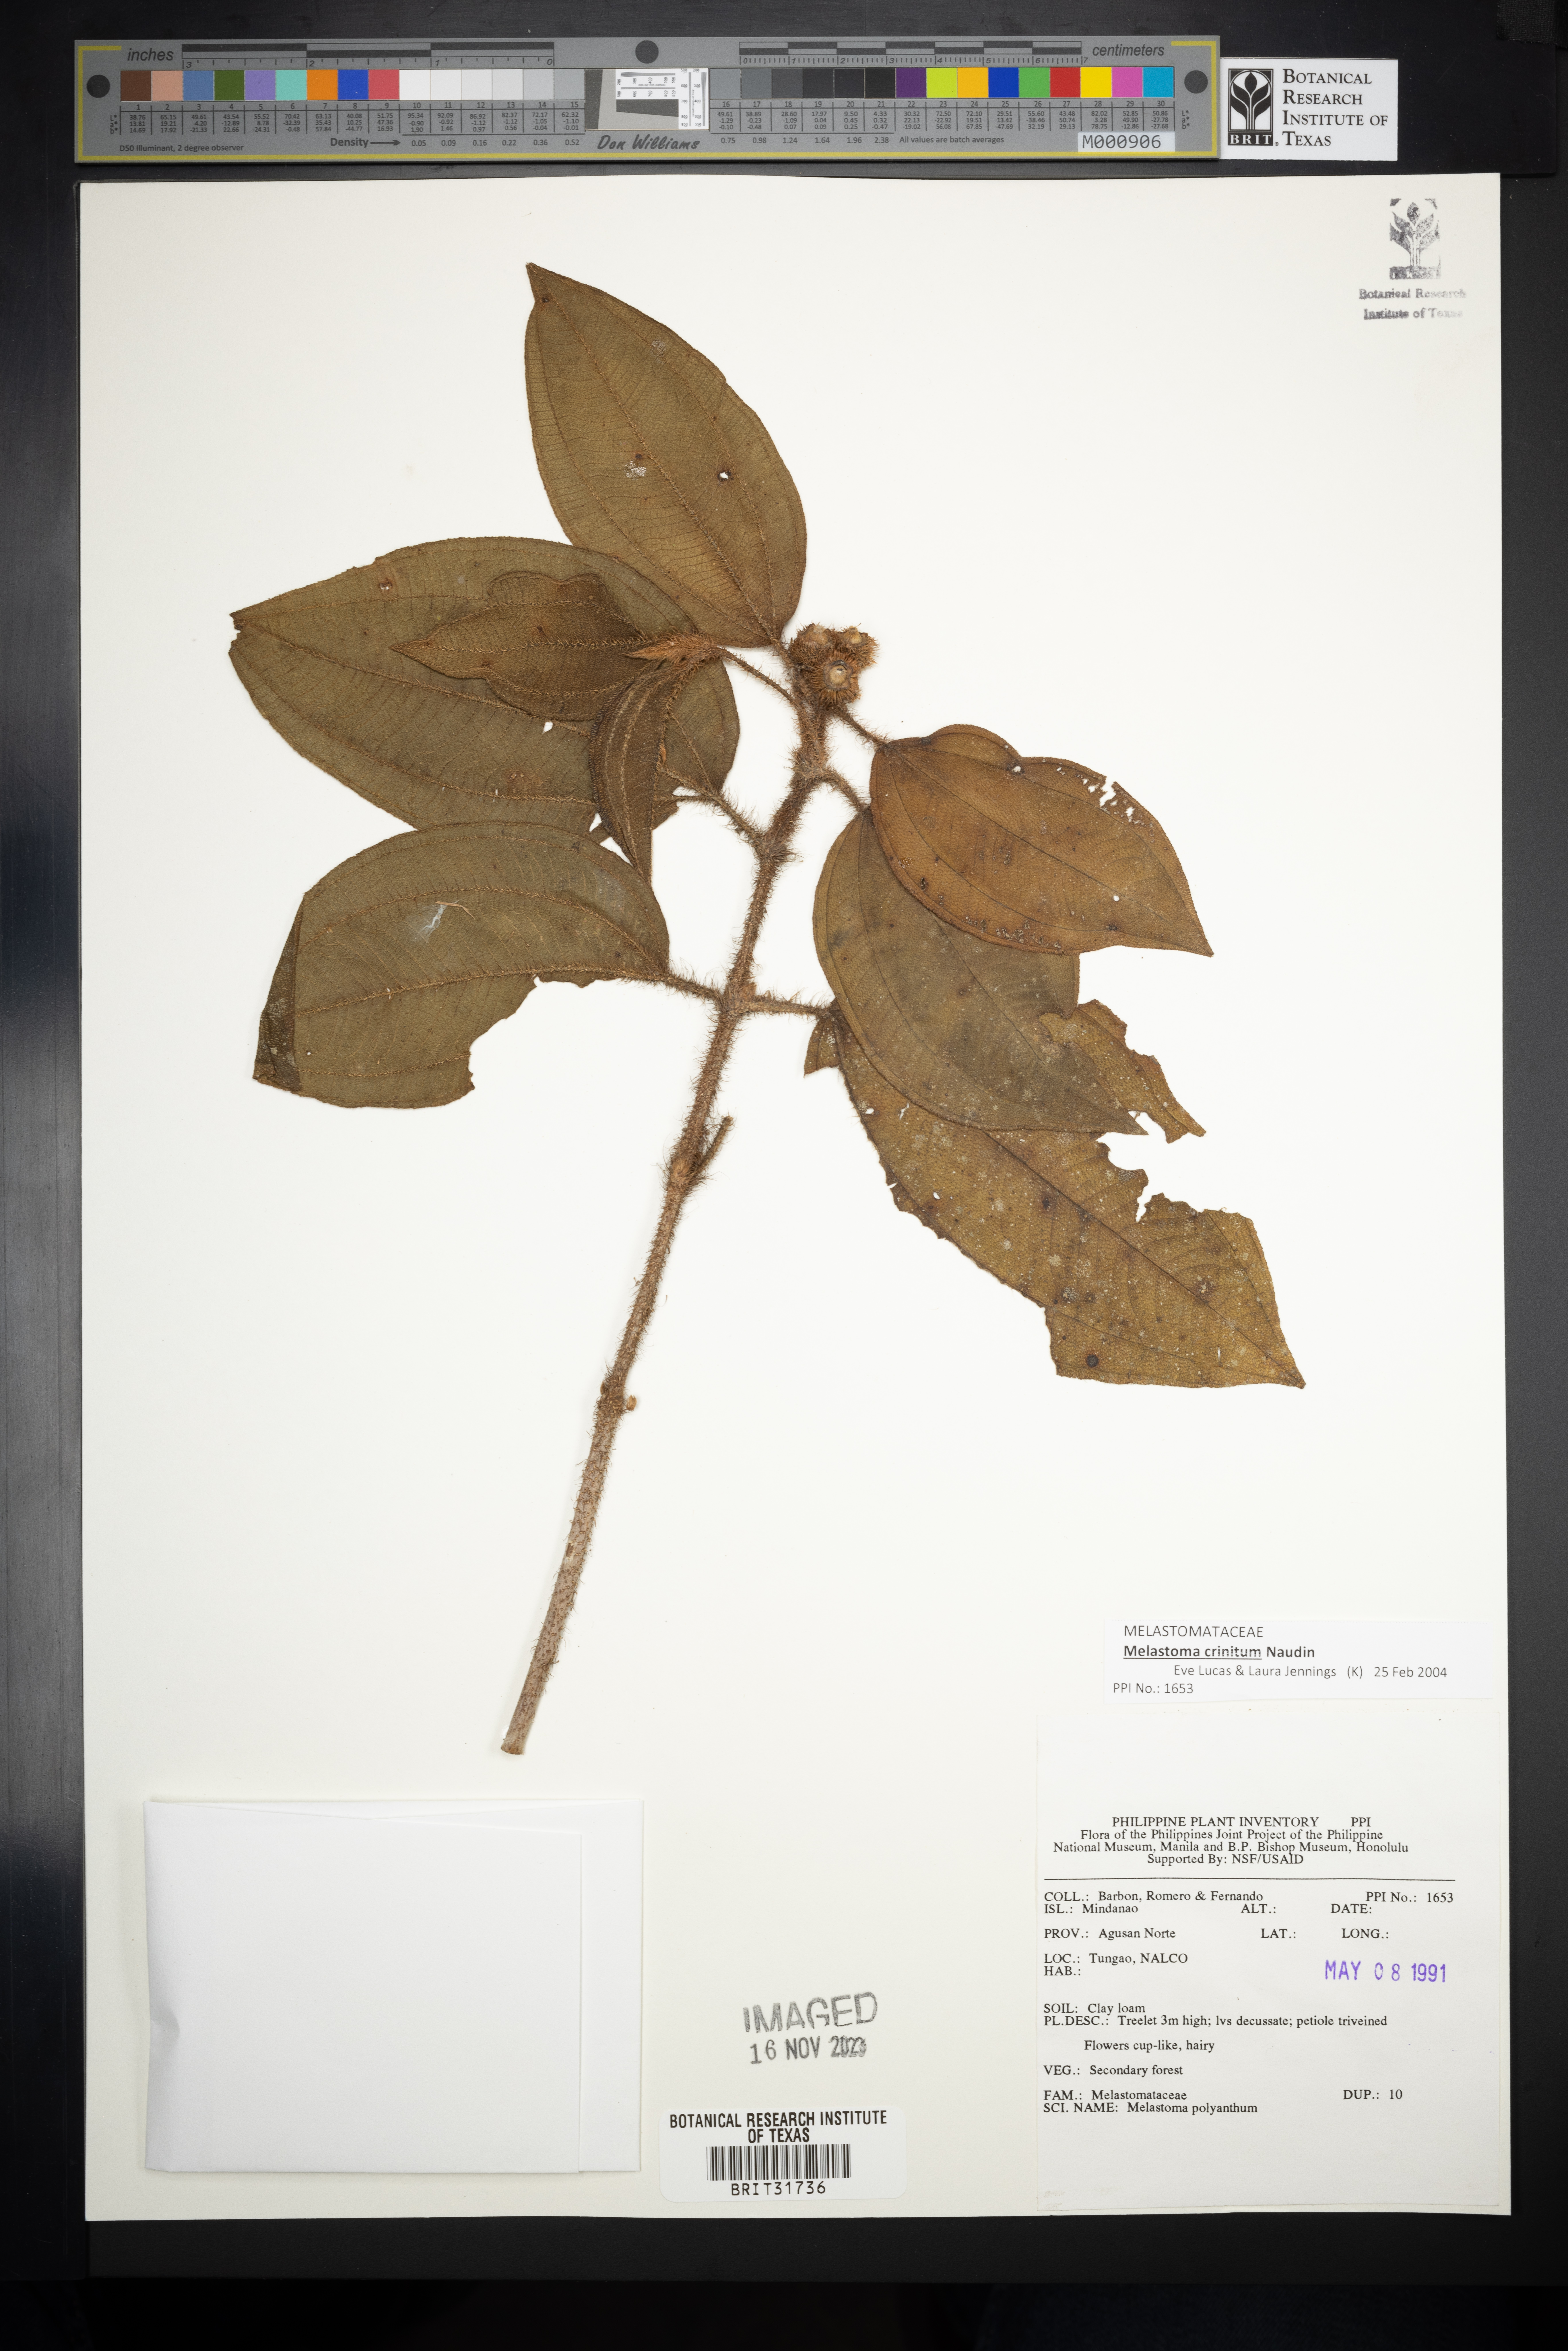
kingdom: Plantae
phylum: Tracheophyta
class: Magnoliopsida
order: Myrtales
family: Melastomataceae
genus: Melastoma
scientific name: Melastoma malabathricum
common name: Indian-rhododendron
